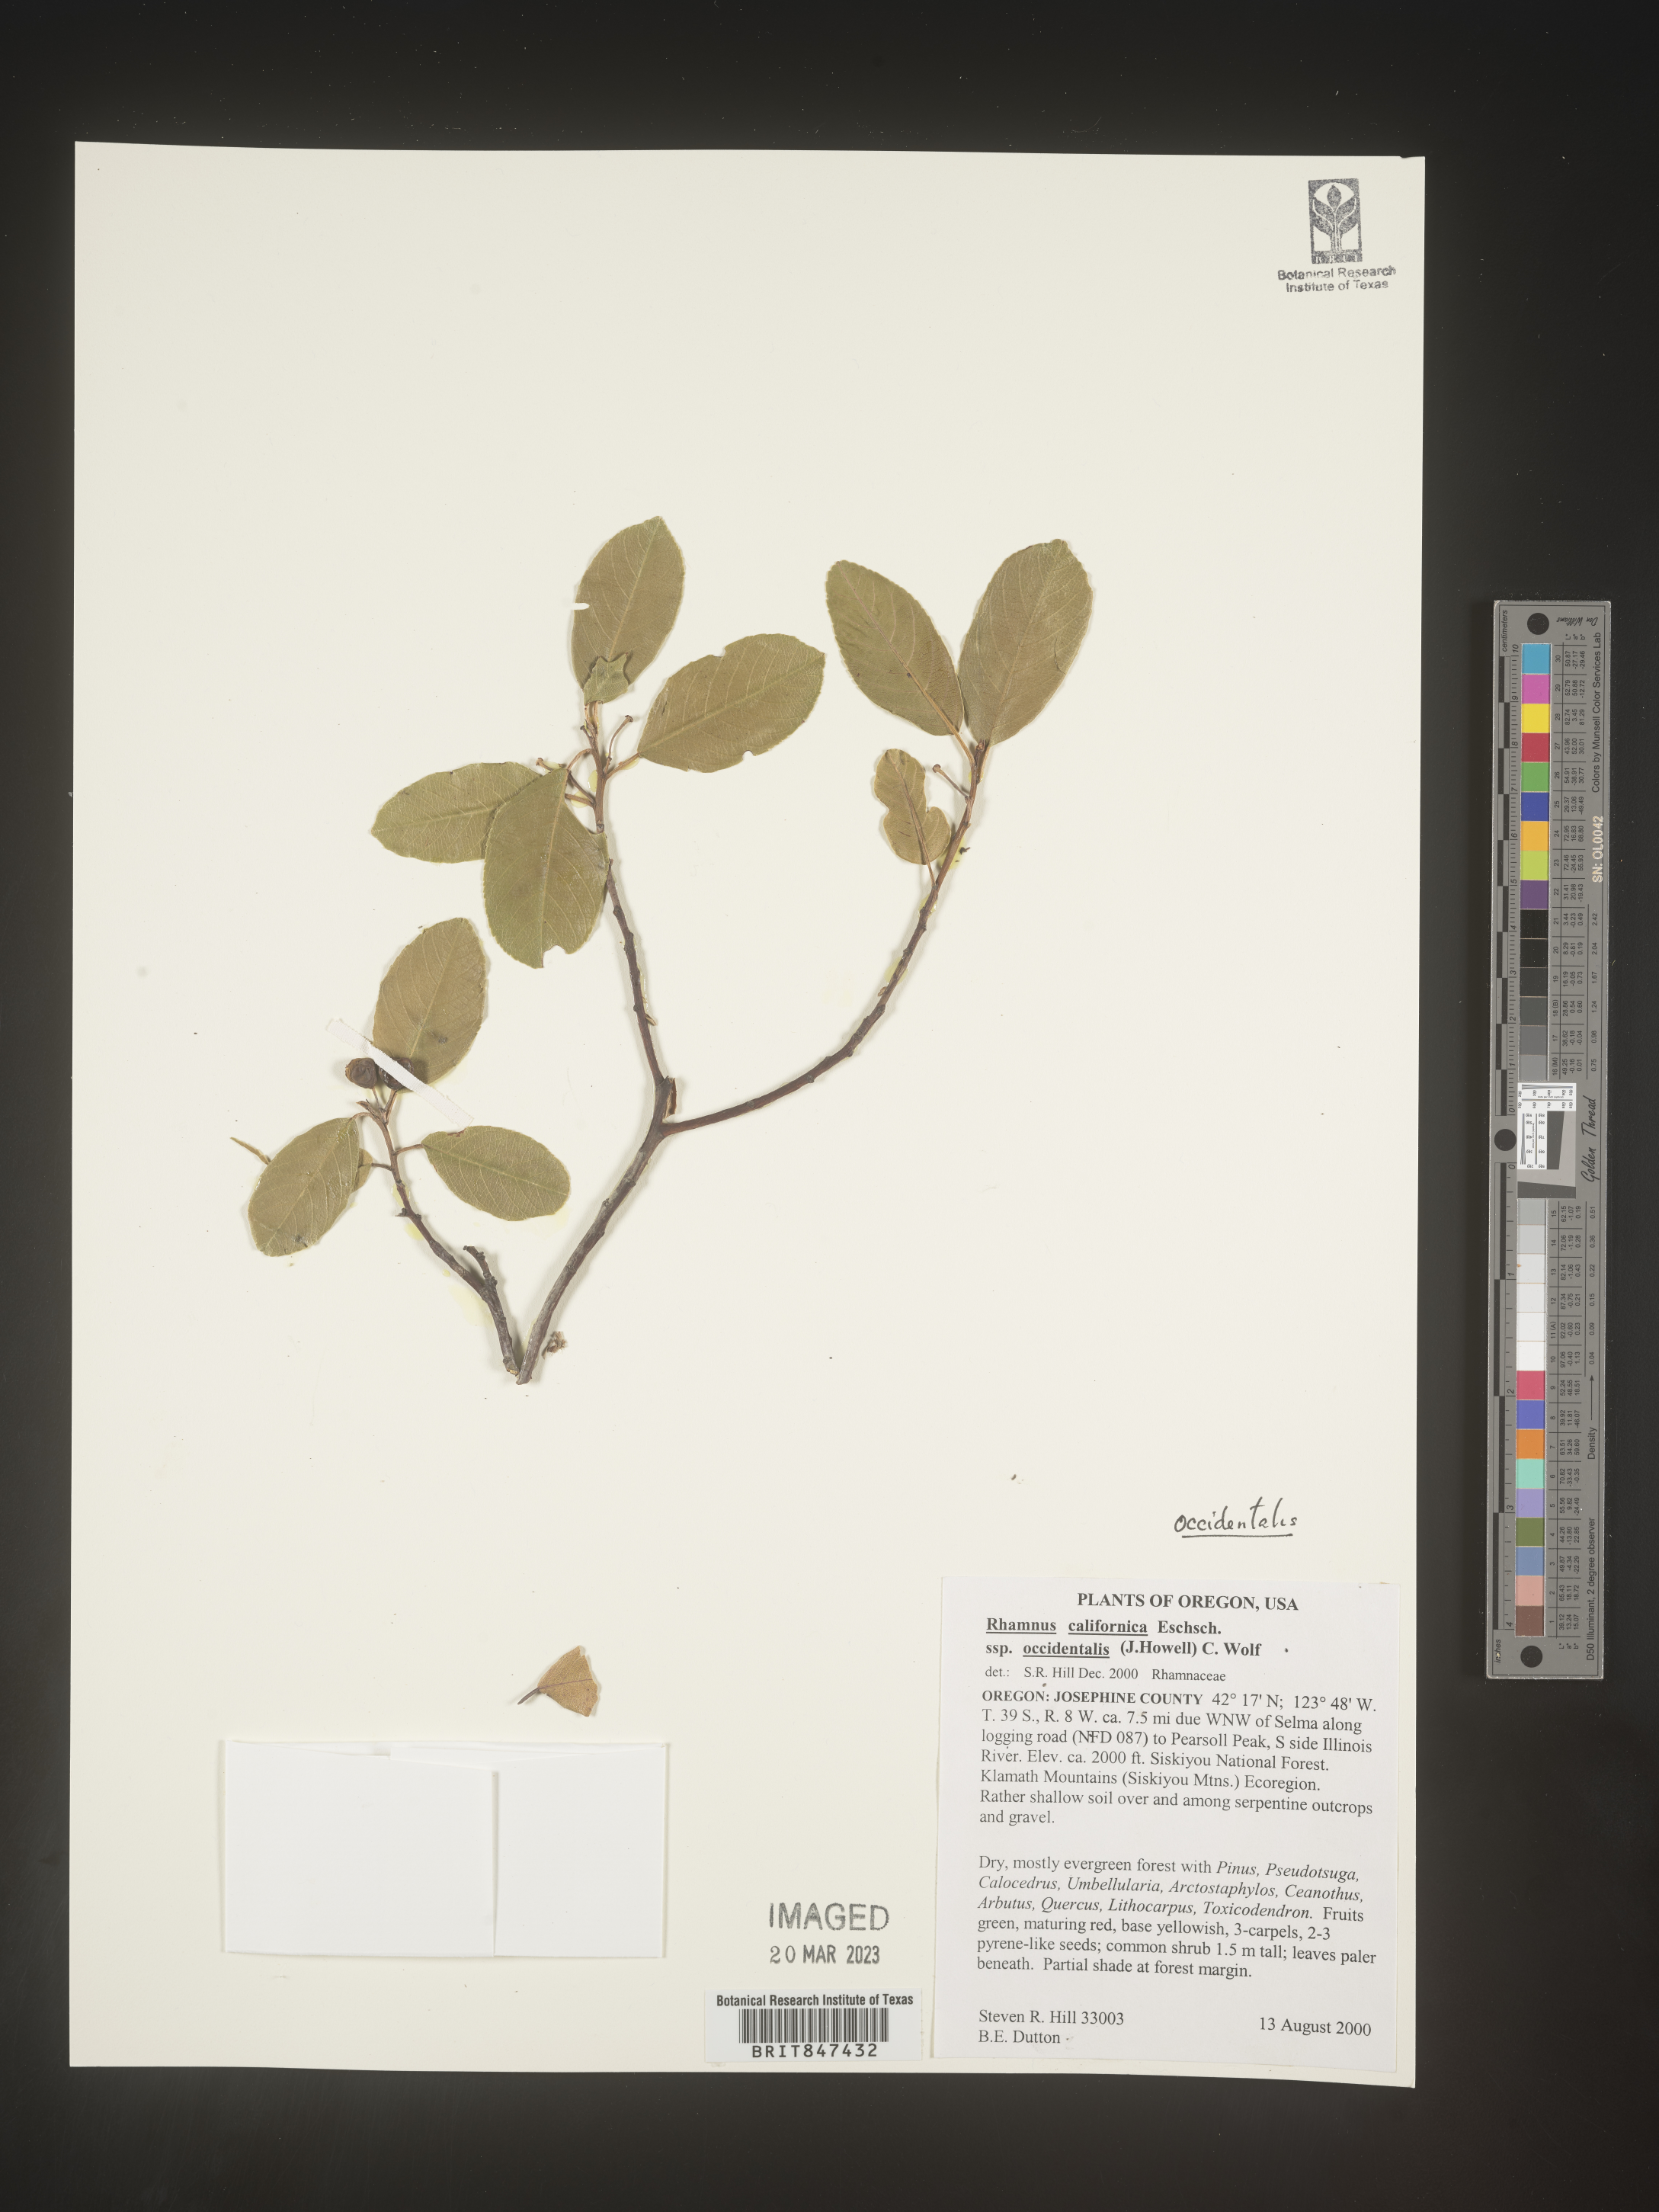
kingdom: Plantae
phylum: Tracheophyta
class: Magnoliopsida
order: Rosales
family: Rhamnaceae
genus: Frangula
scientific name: Frangula californica
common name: California buckthorn
